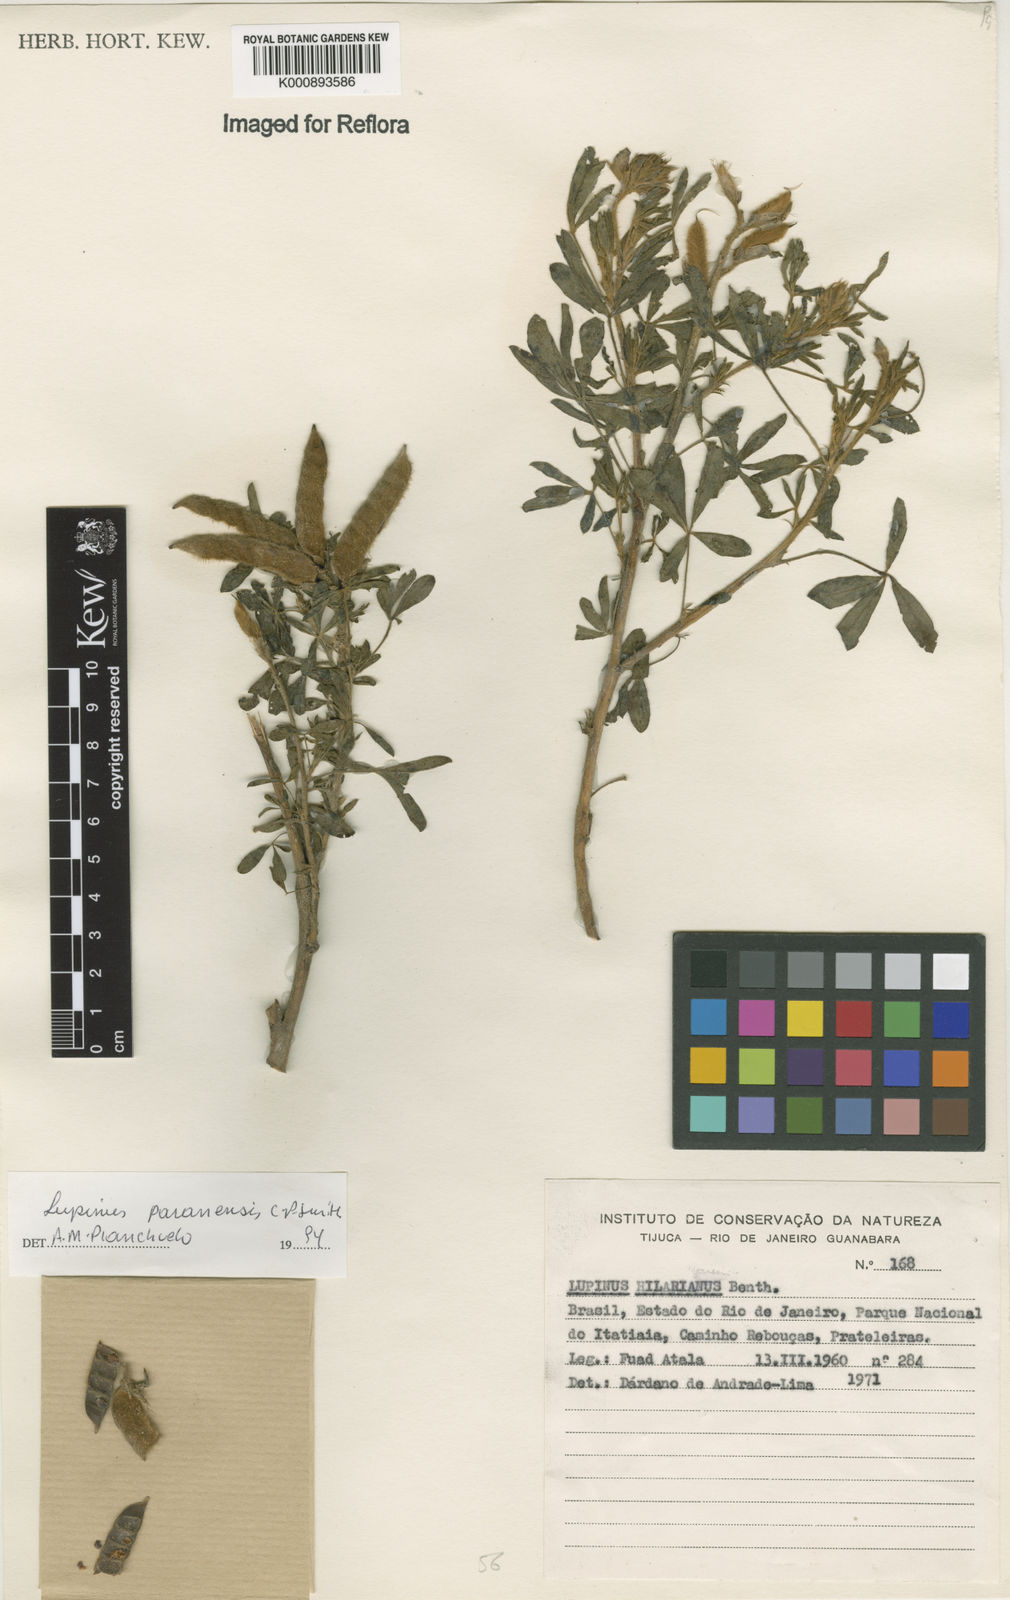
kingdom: Plantae
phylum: Tracheophyta
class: Magnoliopsida
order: Fabales
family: Fabaceae
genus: Lupinus
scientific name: Lupinus paranensis
